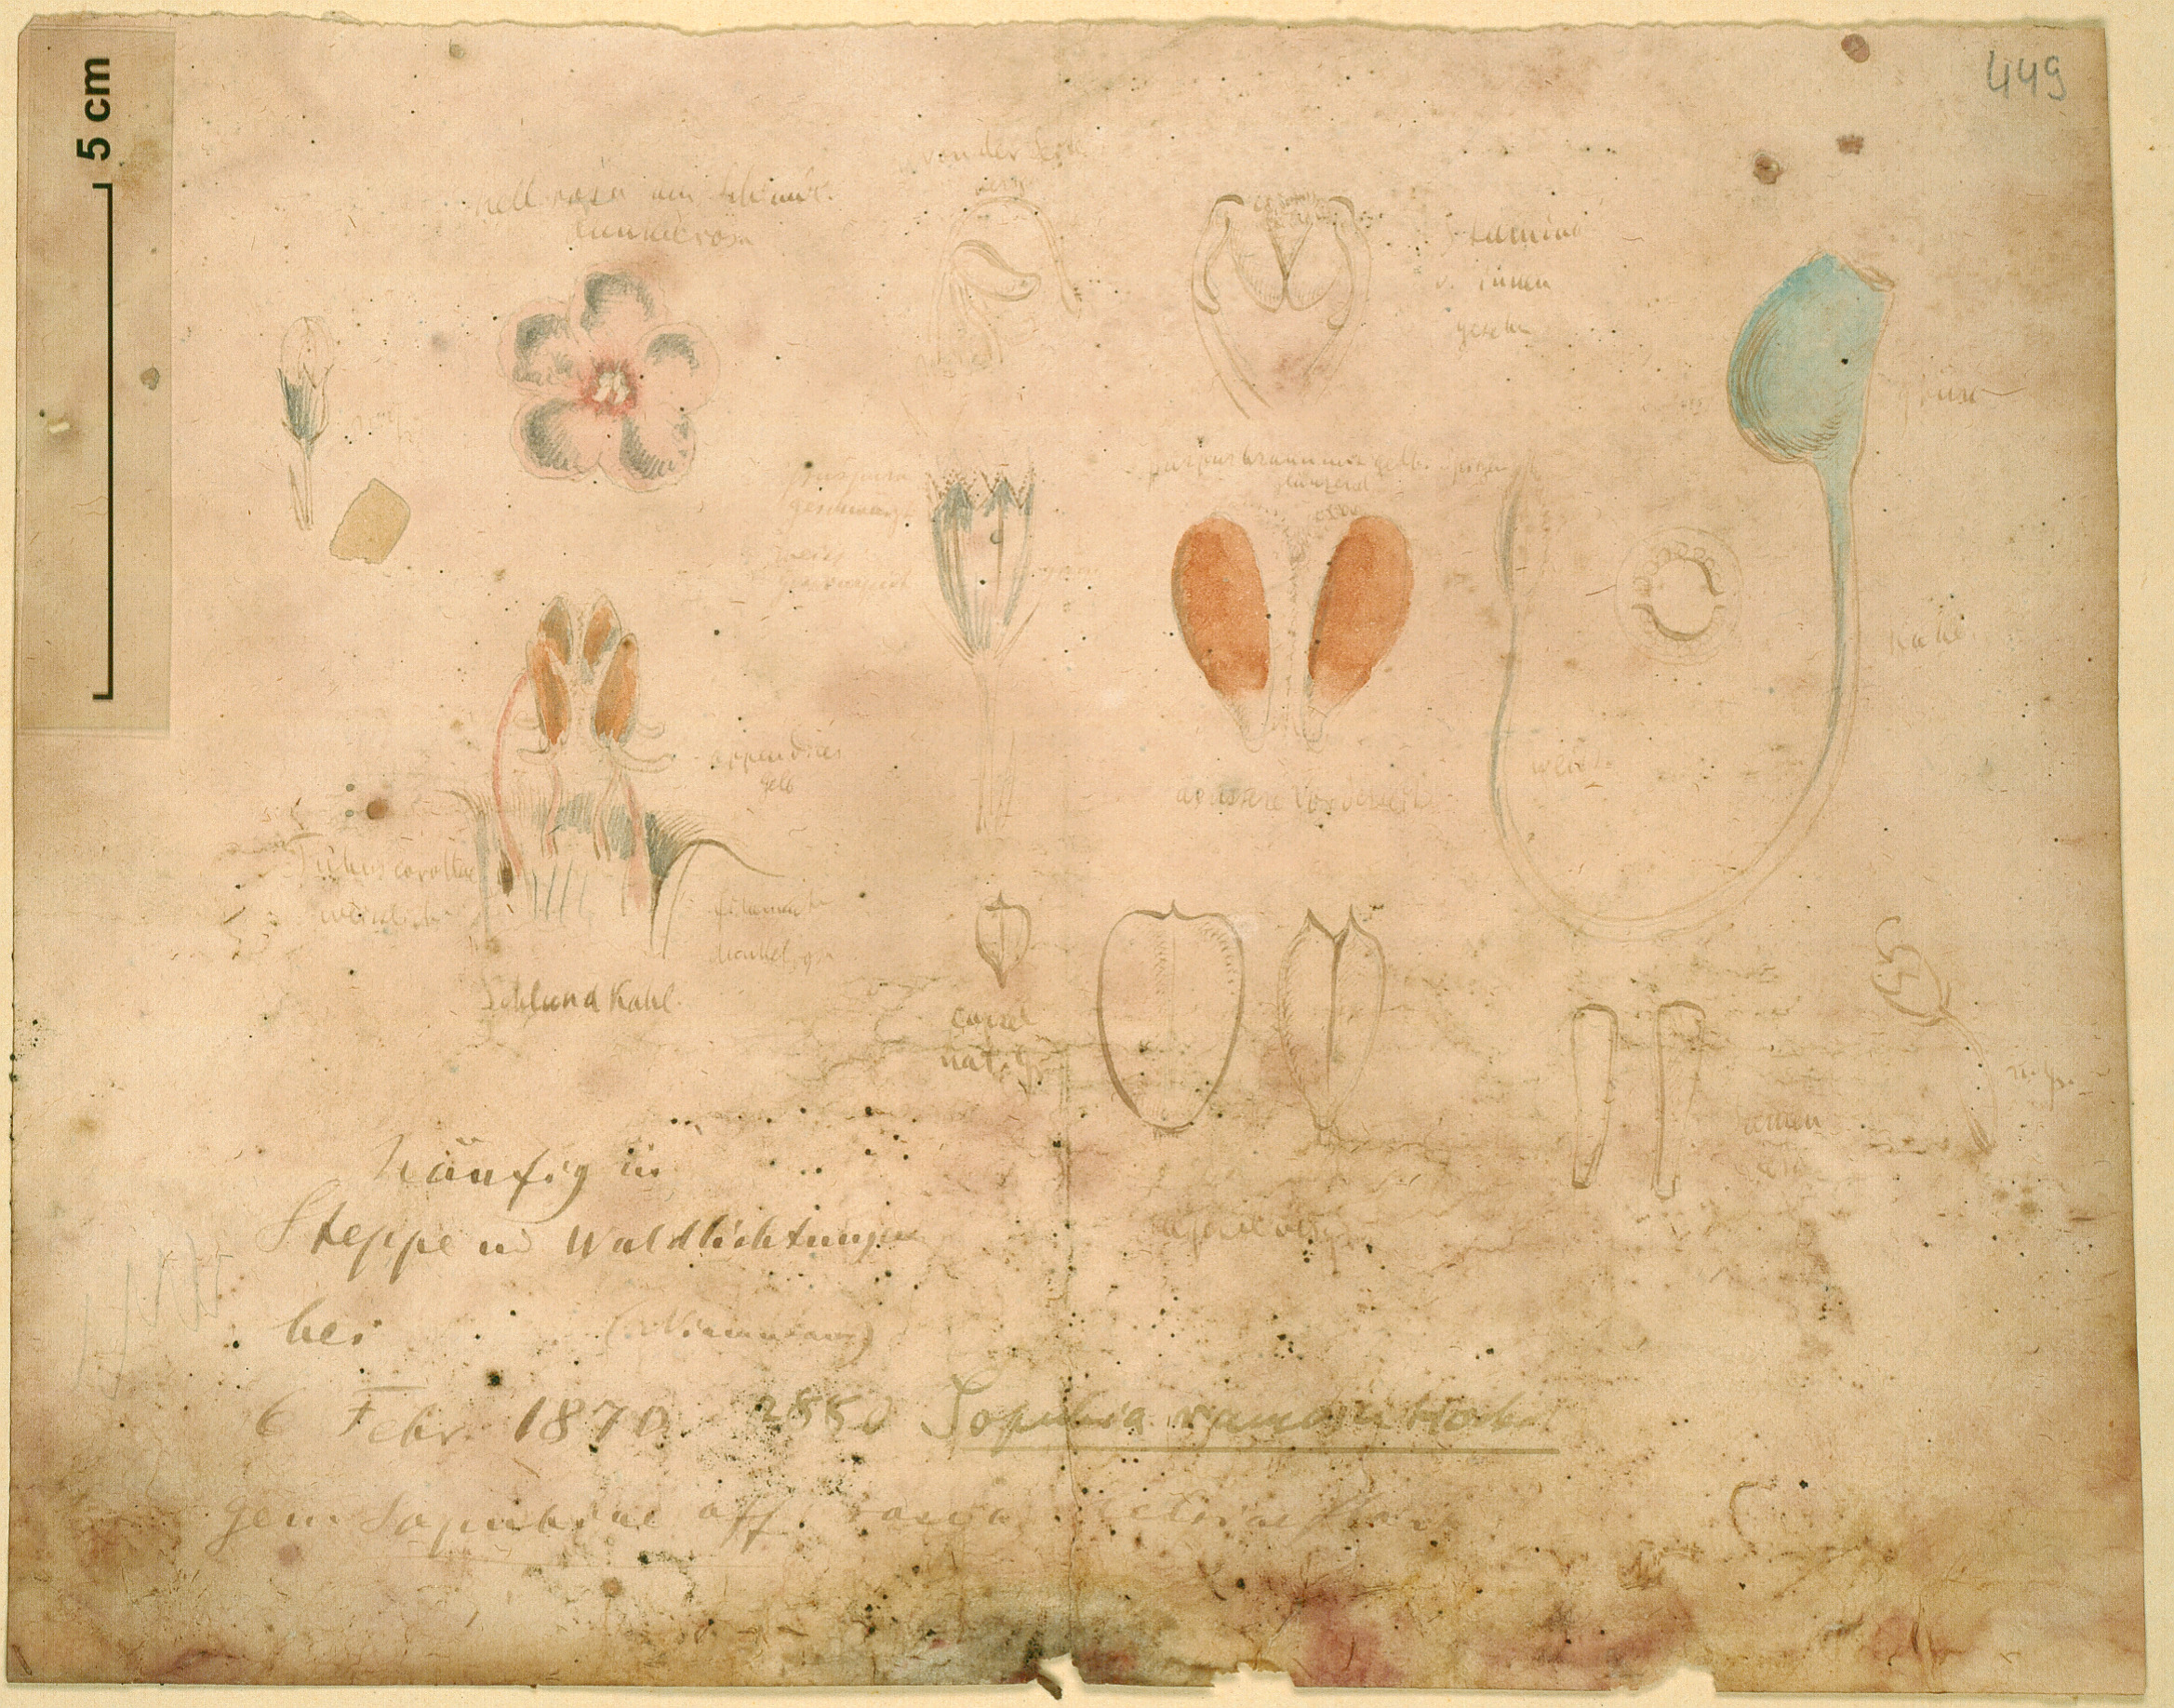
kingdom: Plantae
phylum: Tracheophyta
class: Magnoliopsida
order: Lamiales
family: Orobanchaceae
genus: Sopubia
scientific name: Sopubia ramosa
